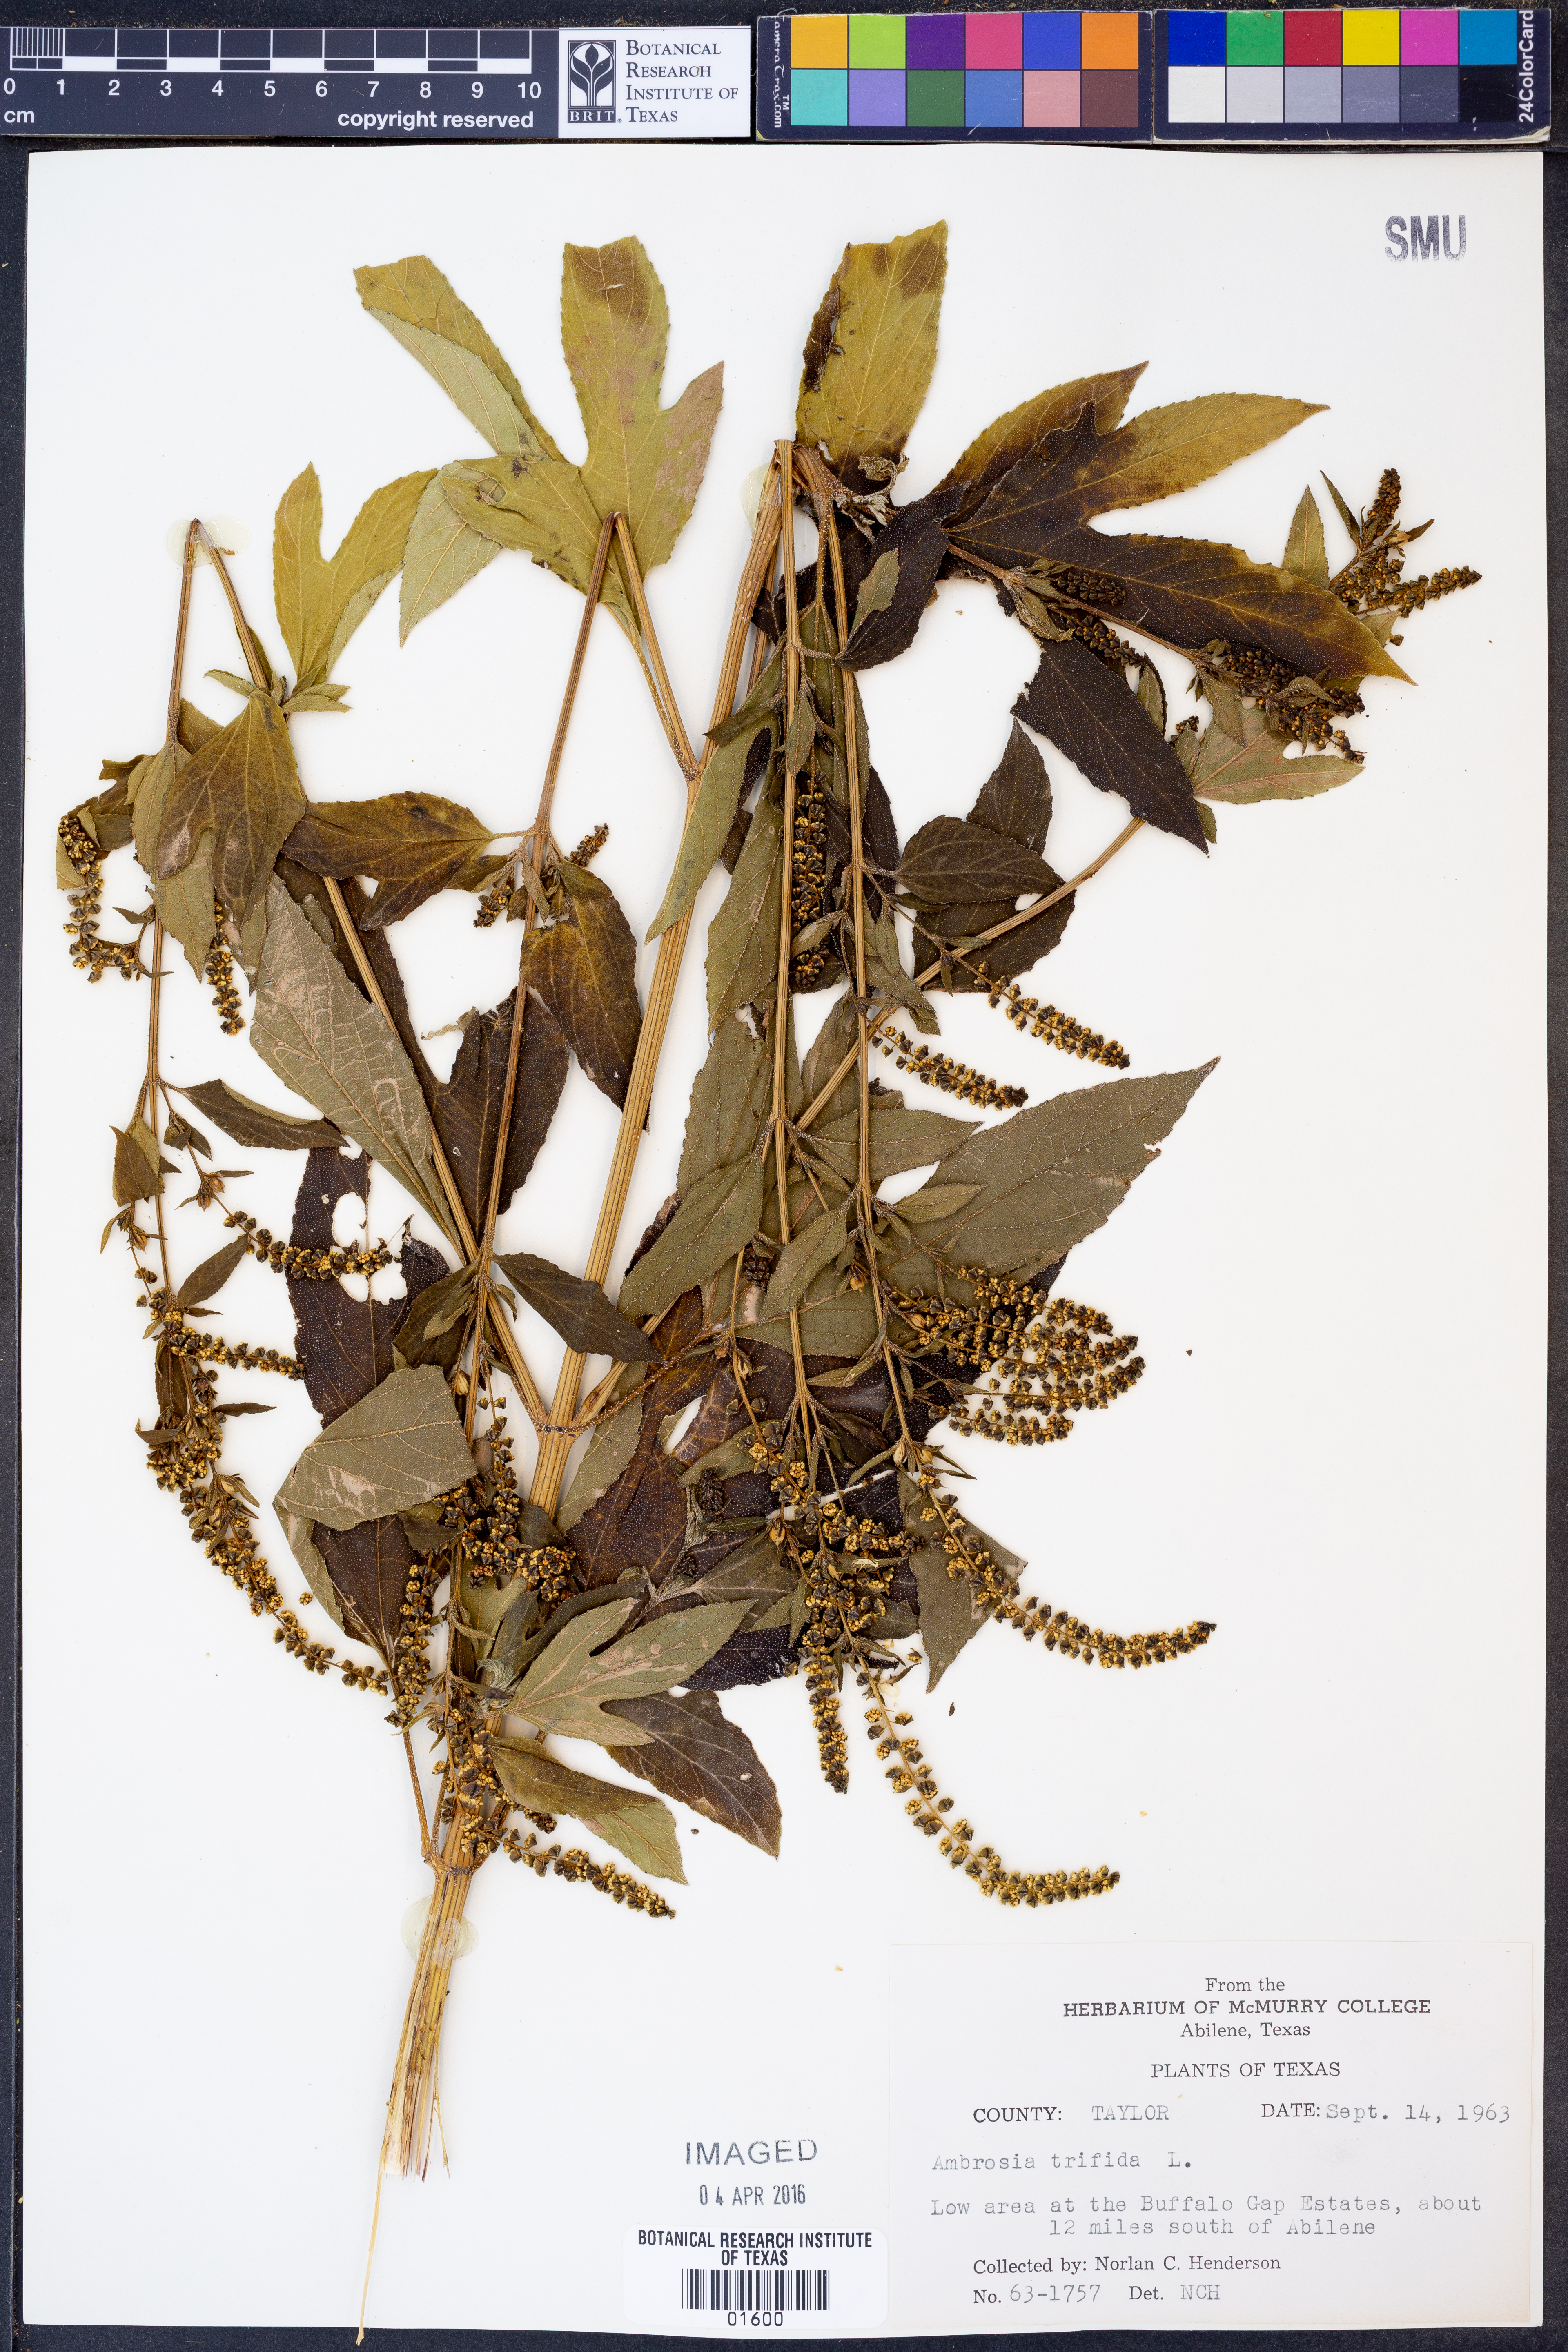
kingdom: Plantae
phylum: Tracheophyta
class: Magnoliopsida
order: Asterales
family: Asteraceae
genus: Ambrosia
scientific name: Ambrosia trifida
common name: Giant ragweed
